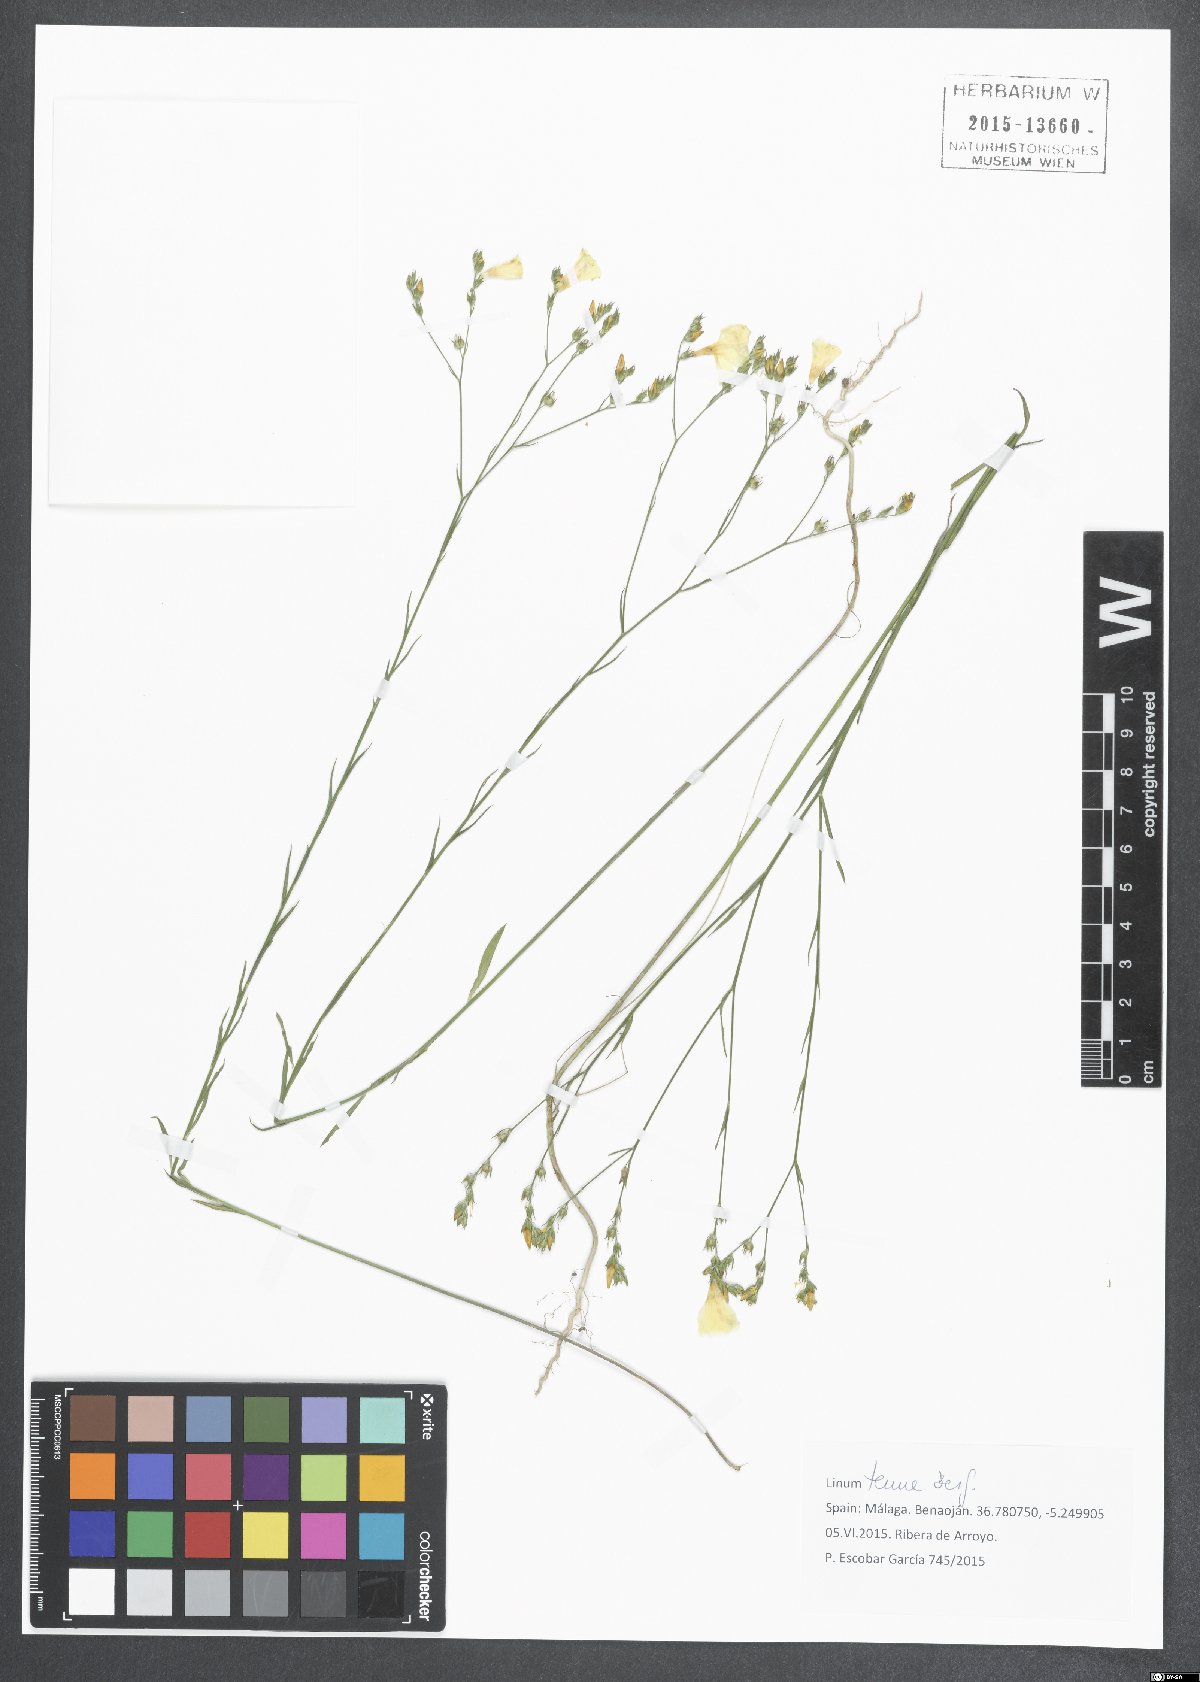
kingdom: Plantae
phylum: Tracheophyta
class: Magnoliopsida
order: Malpighiales
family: Linaceae
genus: Linum
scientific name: Linum tenue
